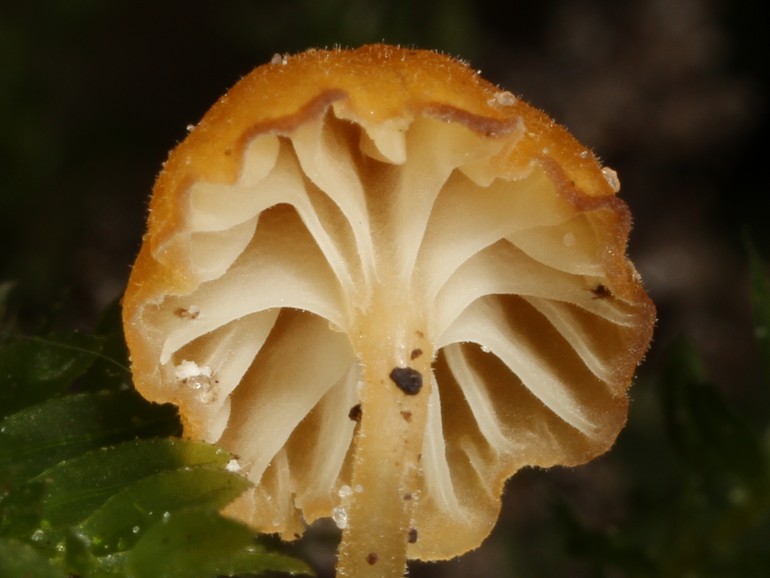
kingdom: Fungi
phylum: Basidiomycota
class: Agaricomycetes
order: Hymenochaetales
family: Rickenellaceae
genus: Rickenella
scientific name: Rickenella fibula
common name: orange mosnavlehat
